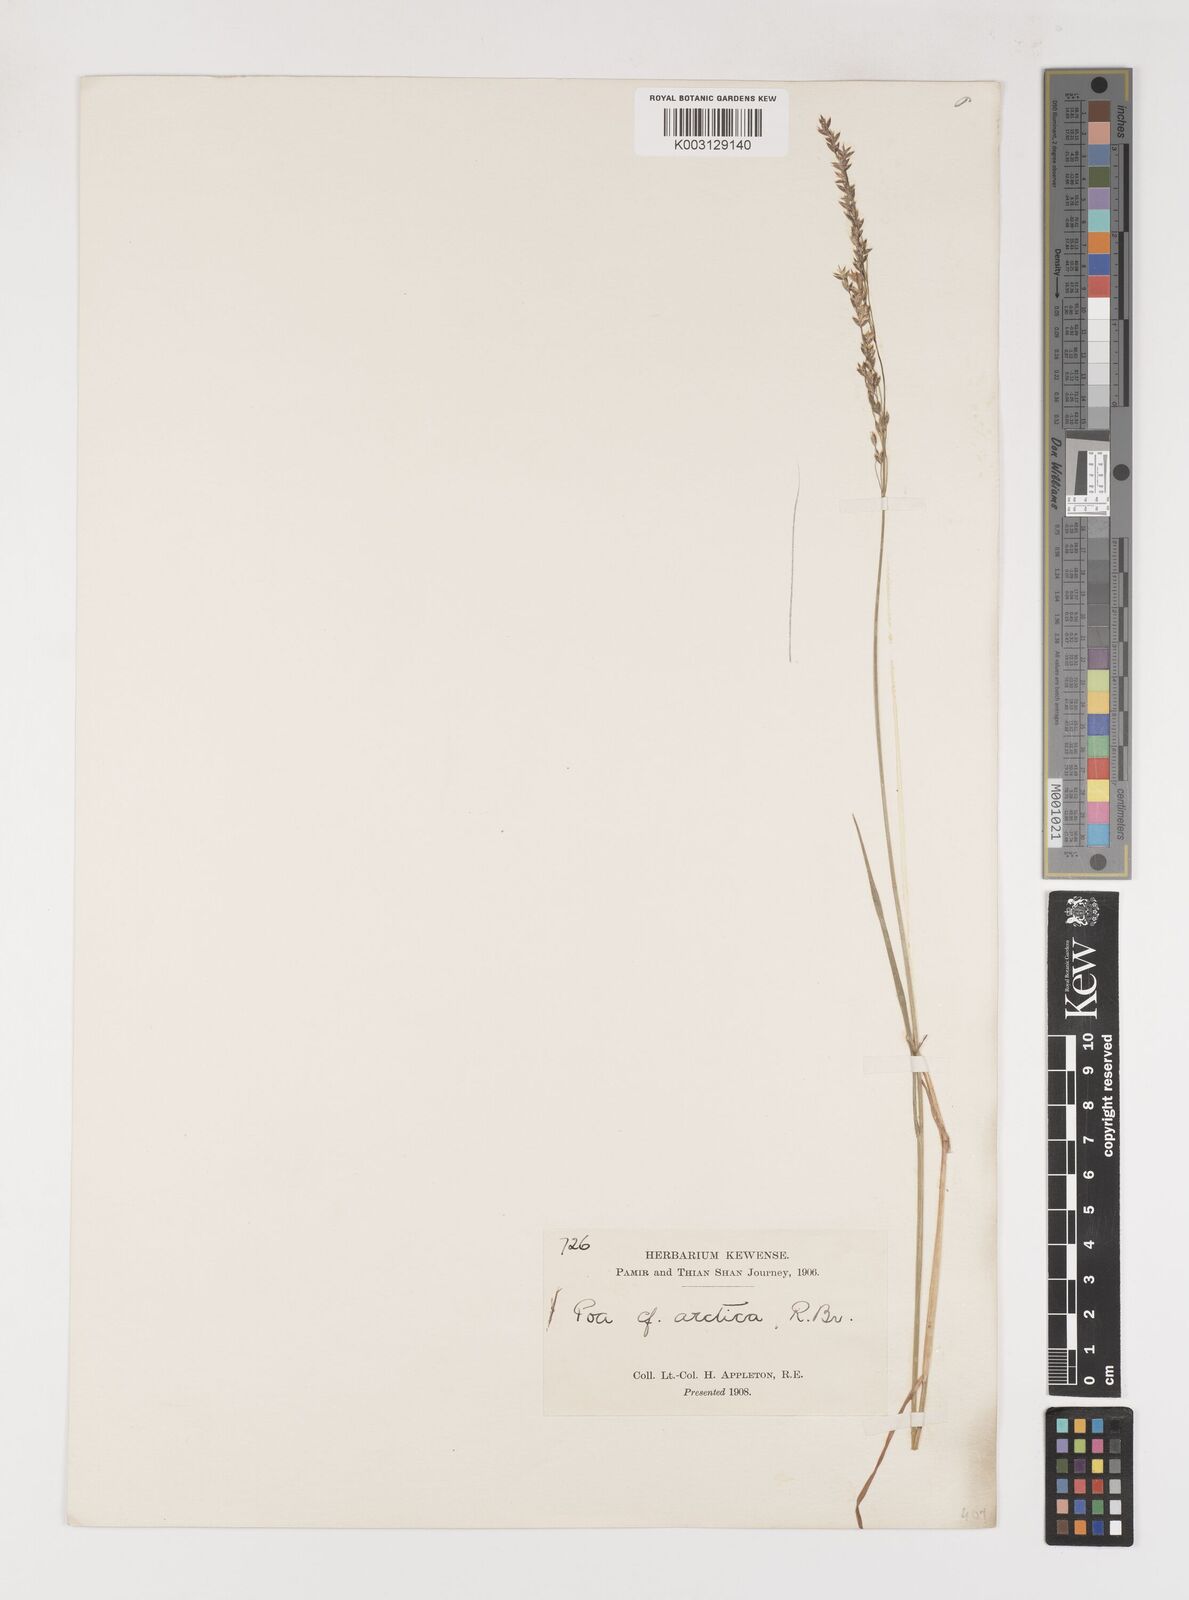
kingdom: Plantae
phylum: Tracheophyta
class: Liliopsida
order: Poales
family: Poaceae
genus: Poa
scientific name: Poa arctica
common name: Arctic bluegrass
